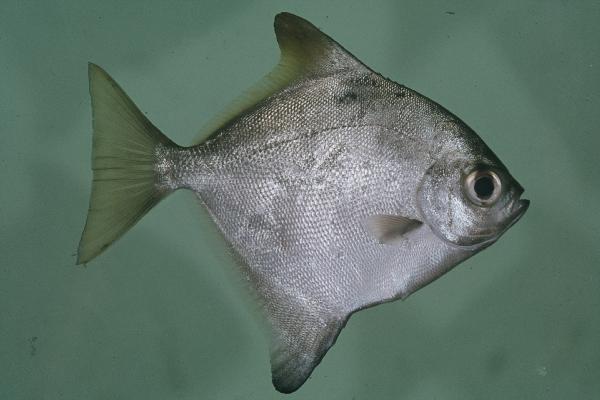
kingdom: Animalia
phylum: Chordata
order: Perciformes
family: Monodactylidae
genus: Monodactylus
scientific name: Monodactylus argenteus
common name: Silver moony
